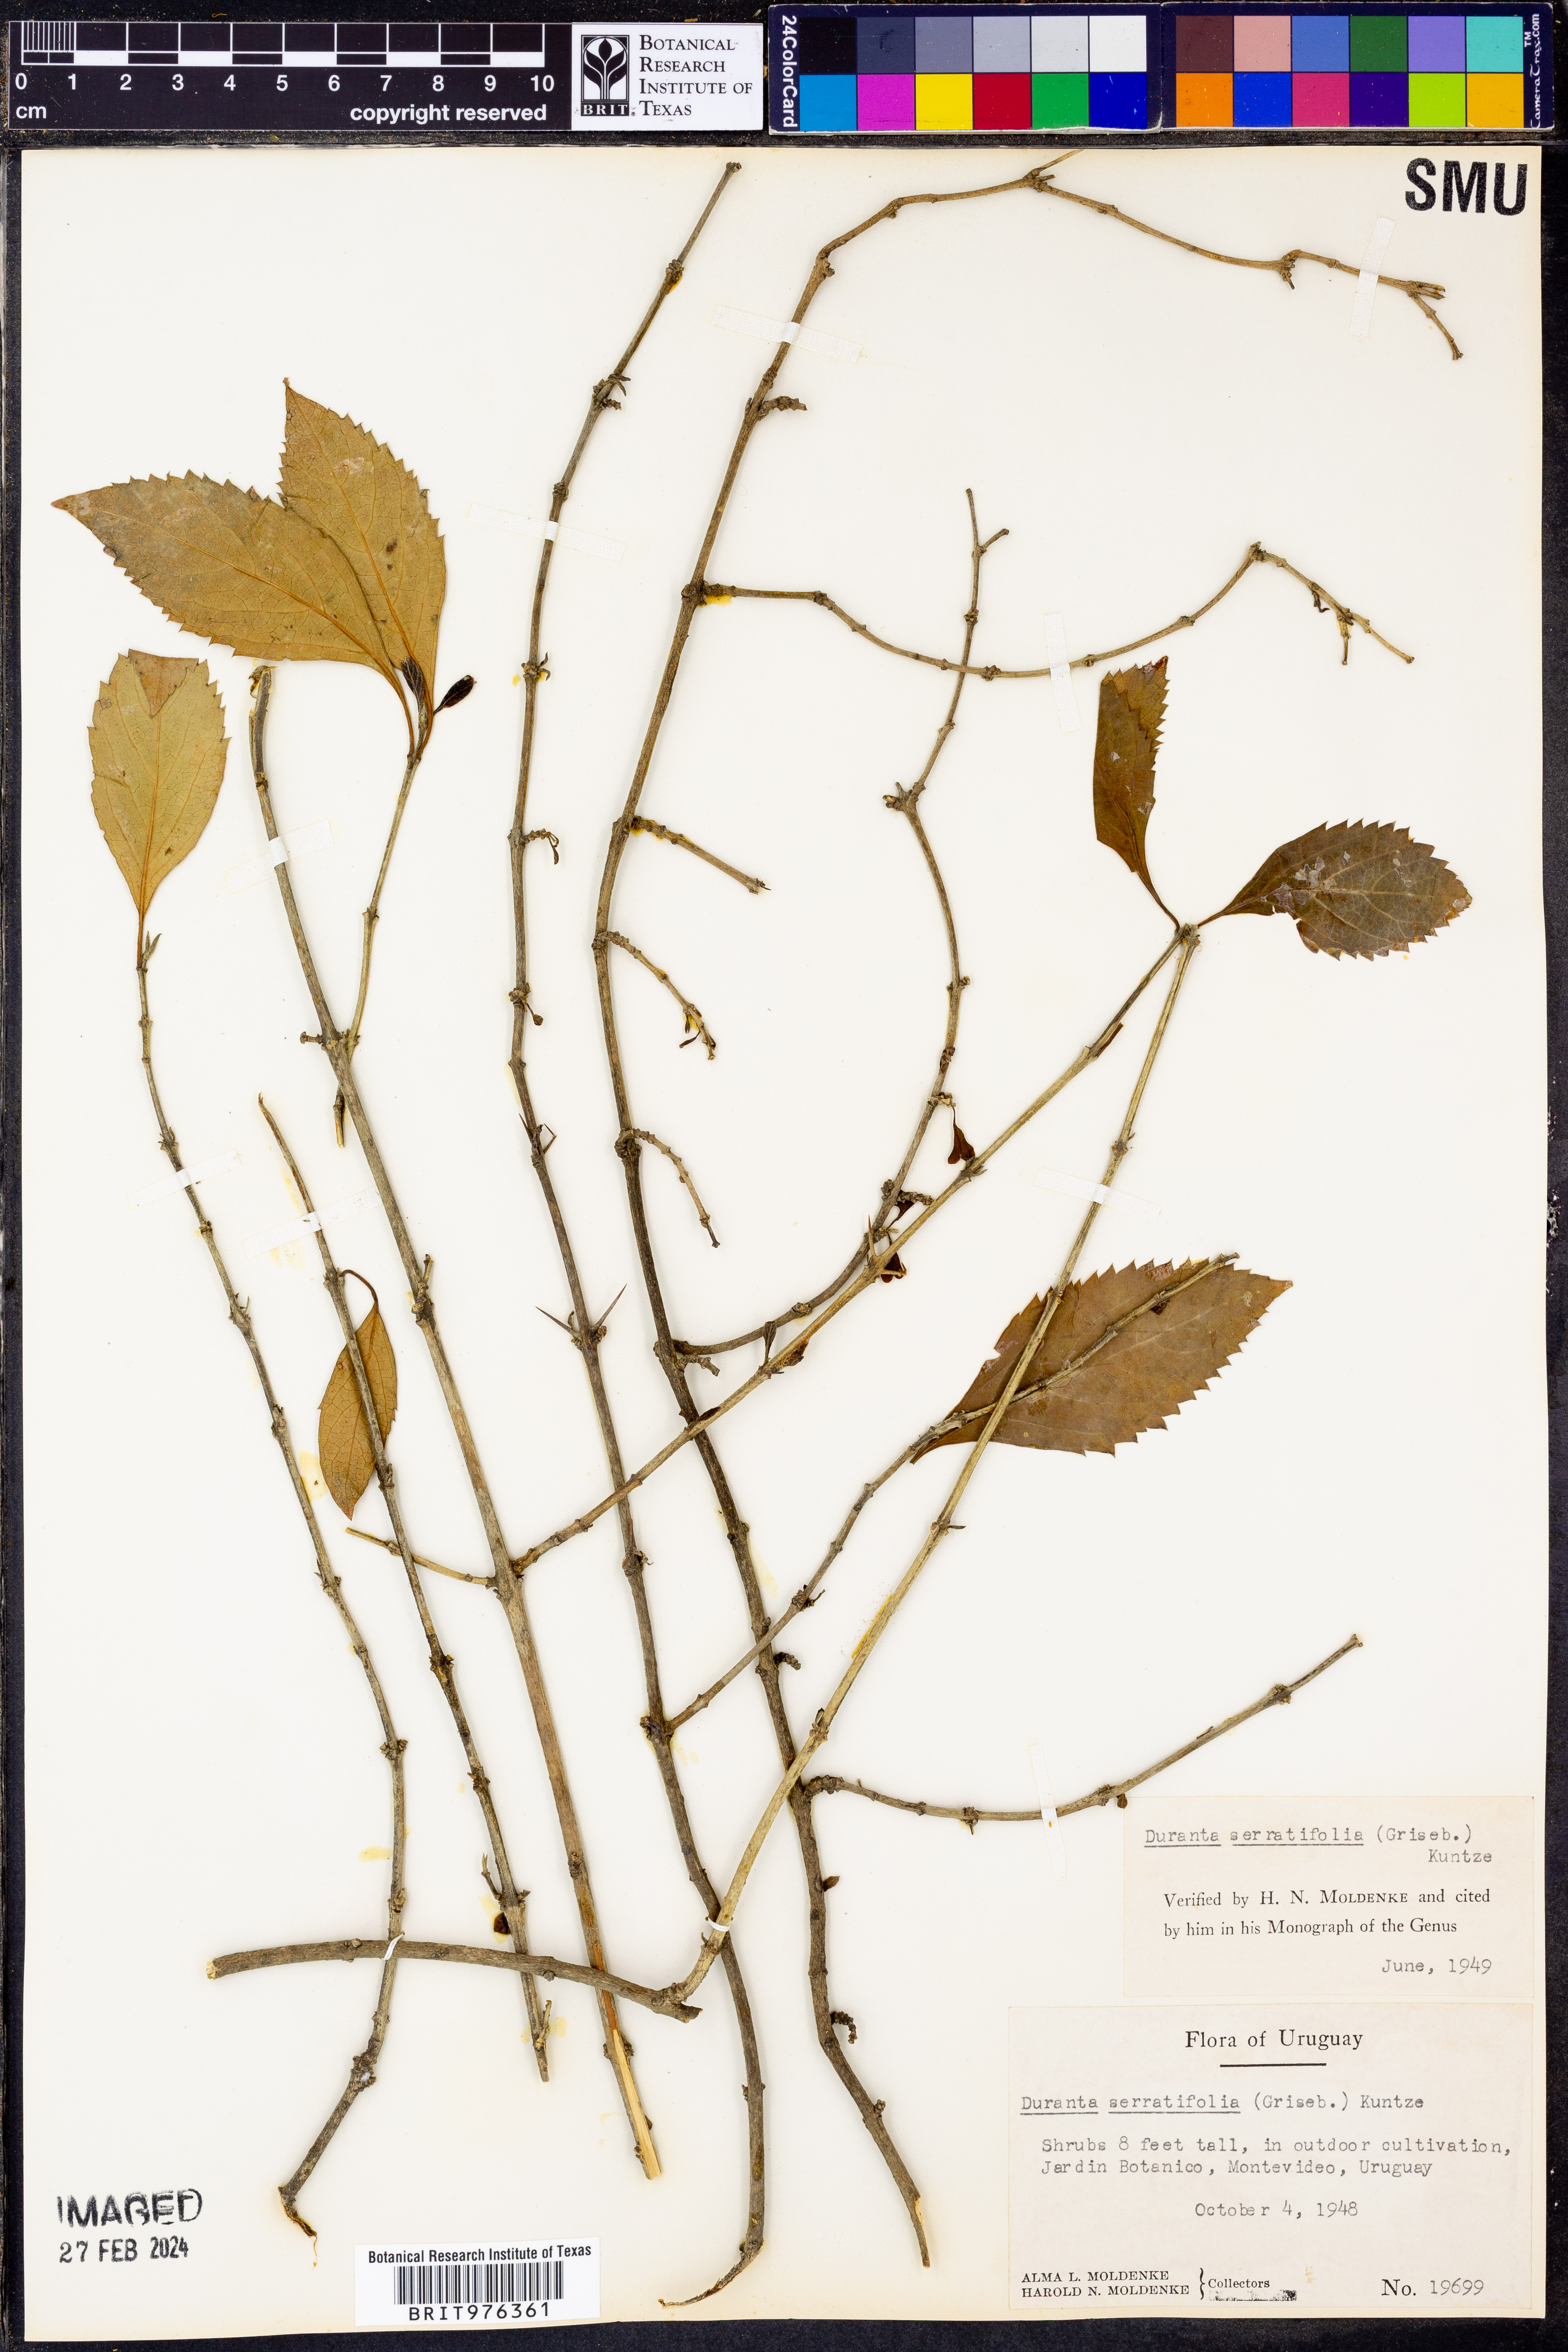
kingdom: Plantae
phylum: Tracheophyta
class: Magnoliopsida
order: Lamiales
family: Verbenaceae
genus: Duranta
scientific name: Duranta
